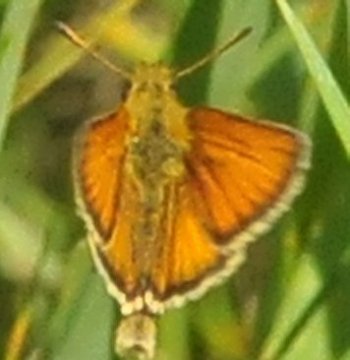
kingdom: Animalia
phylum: Arthropoda
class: Insecta
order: Lepidoptera
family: Hesperiidae
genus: Thymelicus
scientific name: Thymelicus lineola
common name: European Skipper
